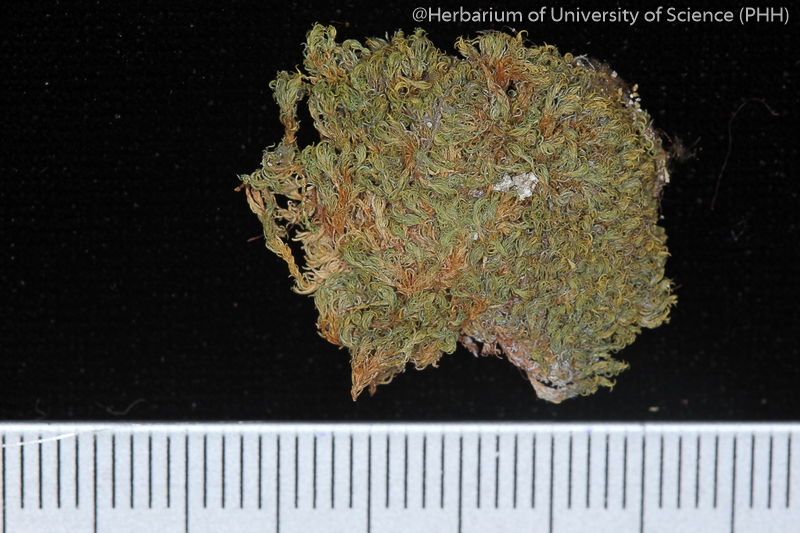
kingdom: Plantae
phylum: Bryophyta
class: Bryopsida
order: Pottiales
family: Pottiaceae
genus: Molendoa
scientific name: Molendoa sendtneriana
